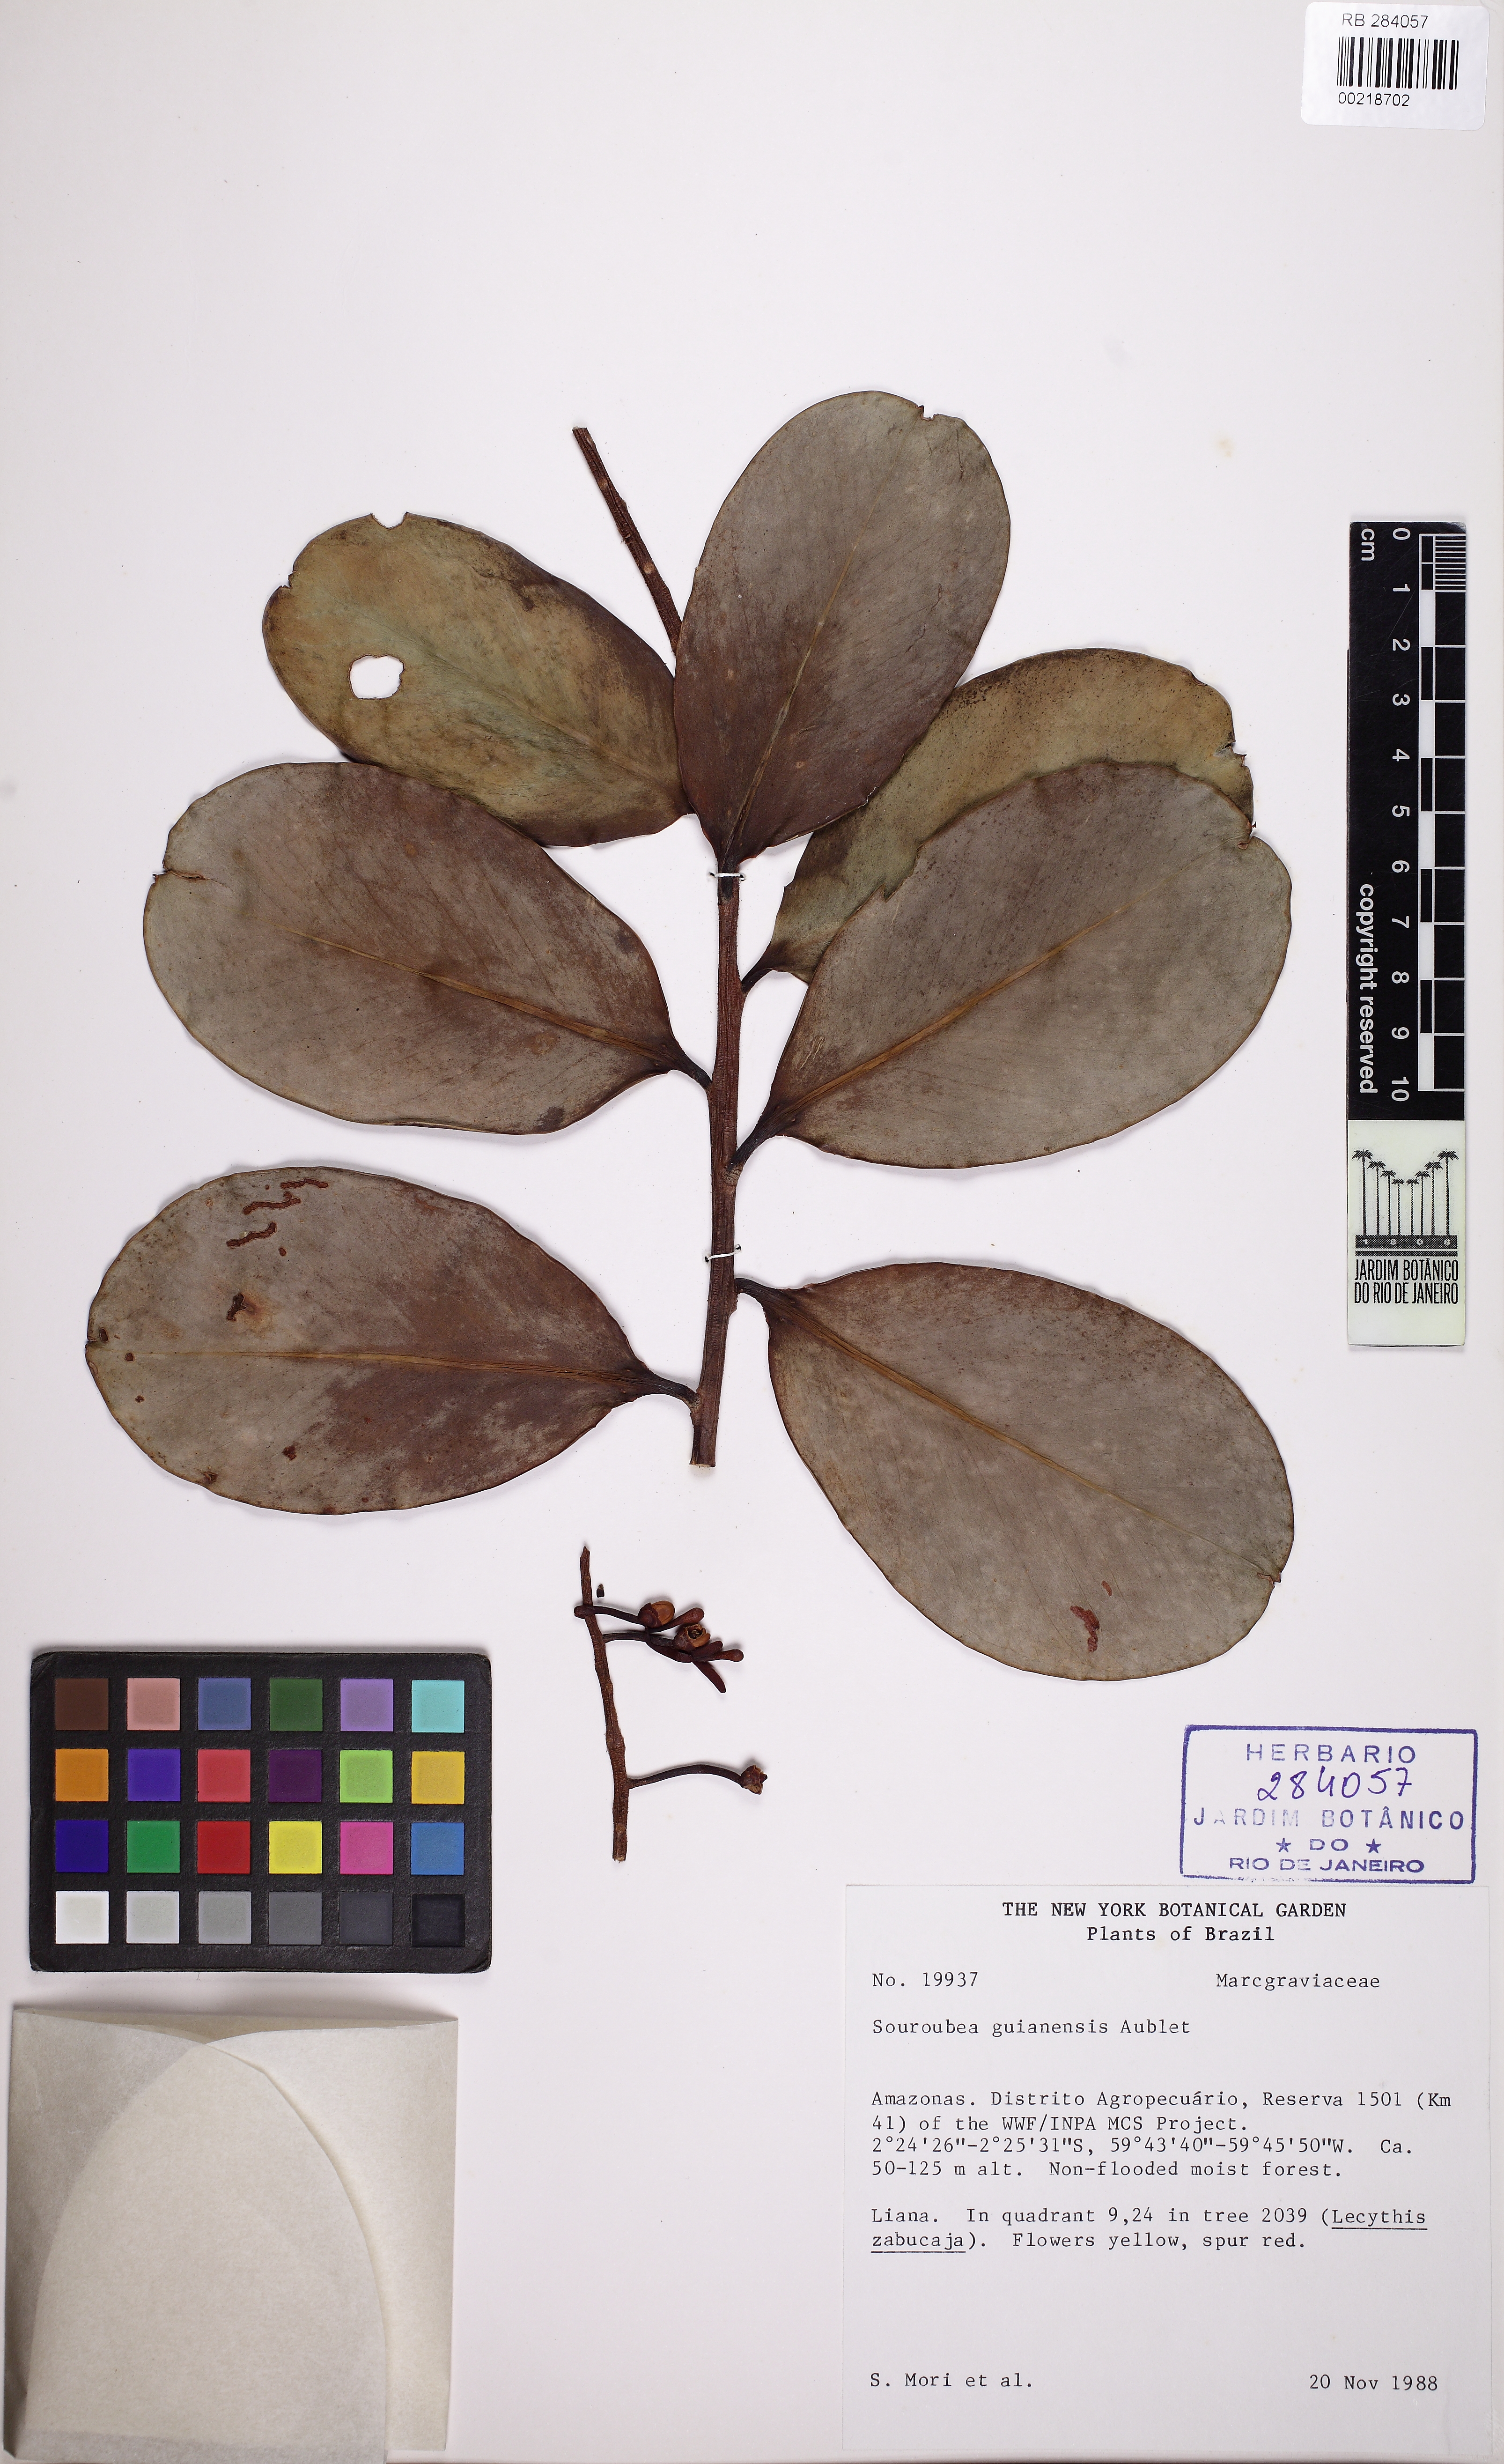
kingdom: Plantae
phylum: Tracheophyta
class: Magnoliopsida
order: Ericales
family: Marcgraviaceae
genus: Souroubea
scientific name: Souroubea guianensis
